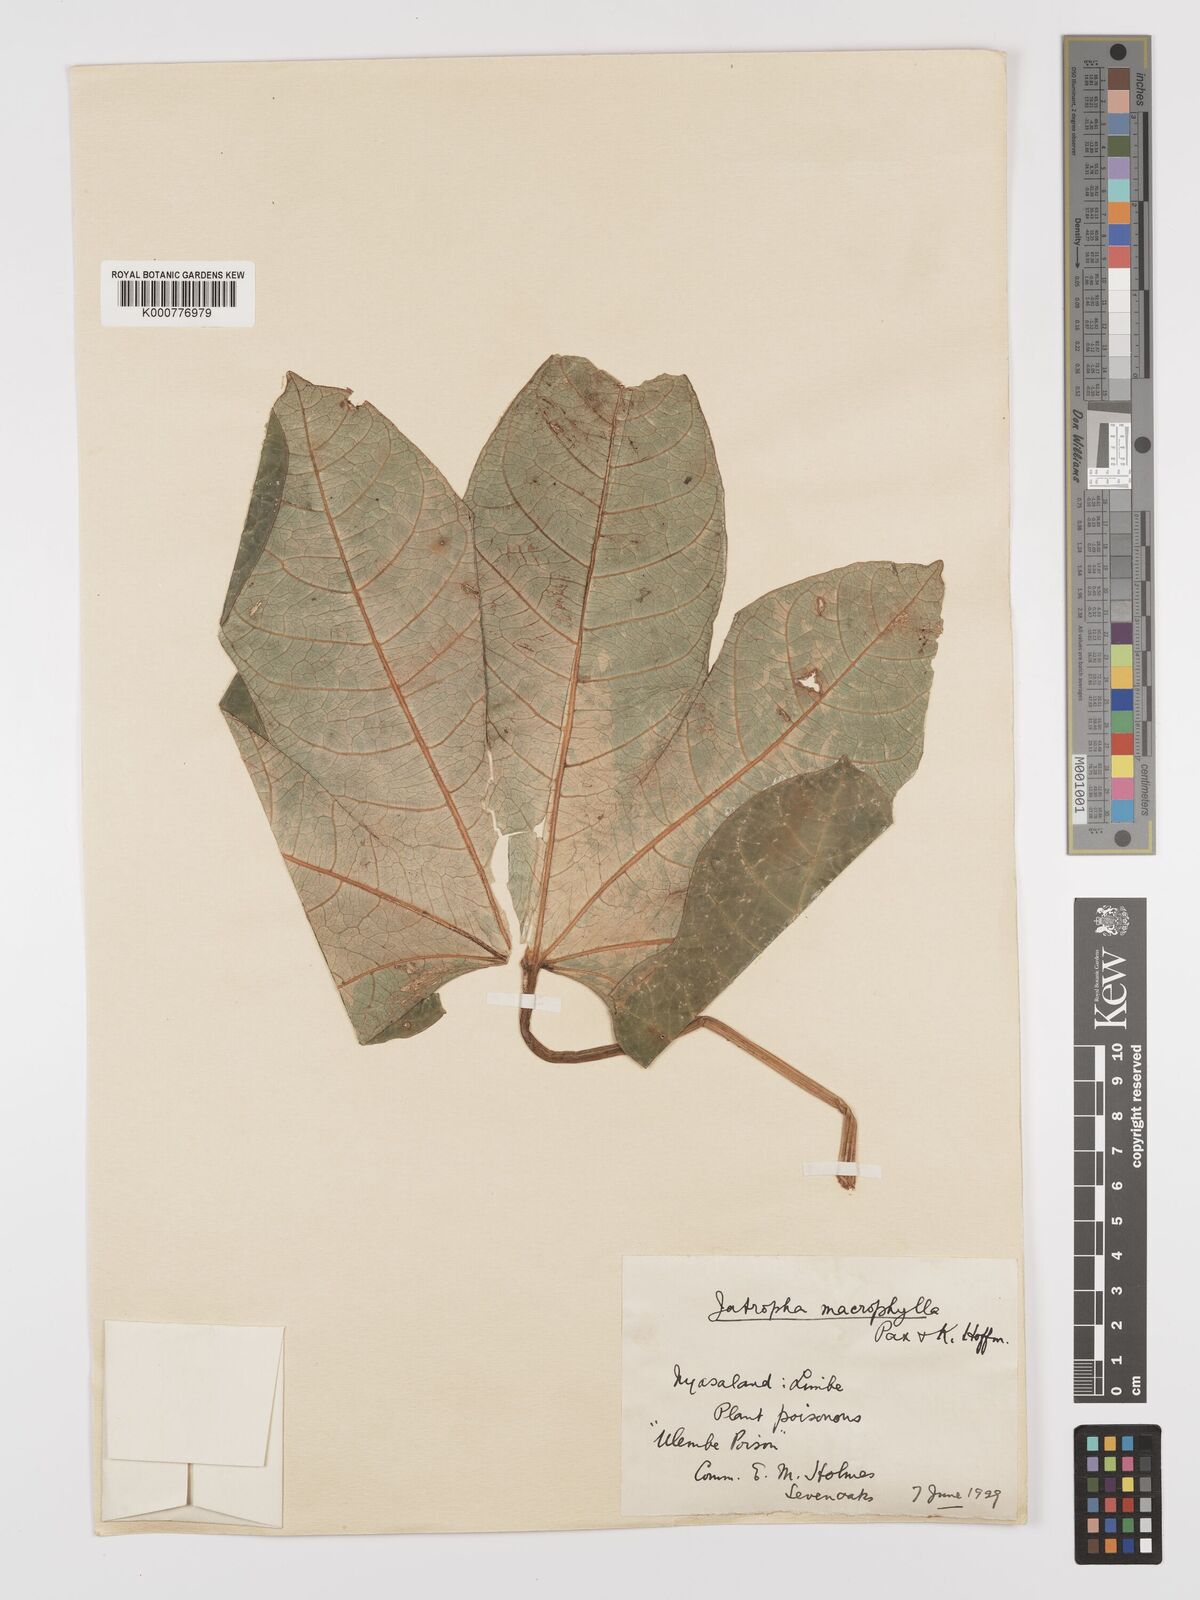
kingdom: Plantae
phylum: Tracheophyta
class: Magnoliopsida
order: Malpighiales
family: Euphorbiaceae
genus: Jatropha
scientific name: Jatropha macrophylla
